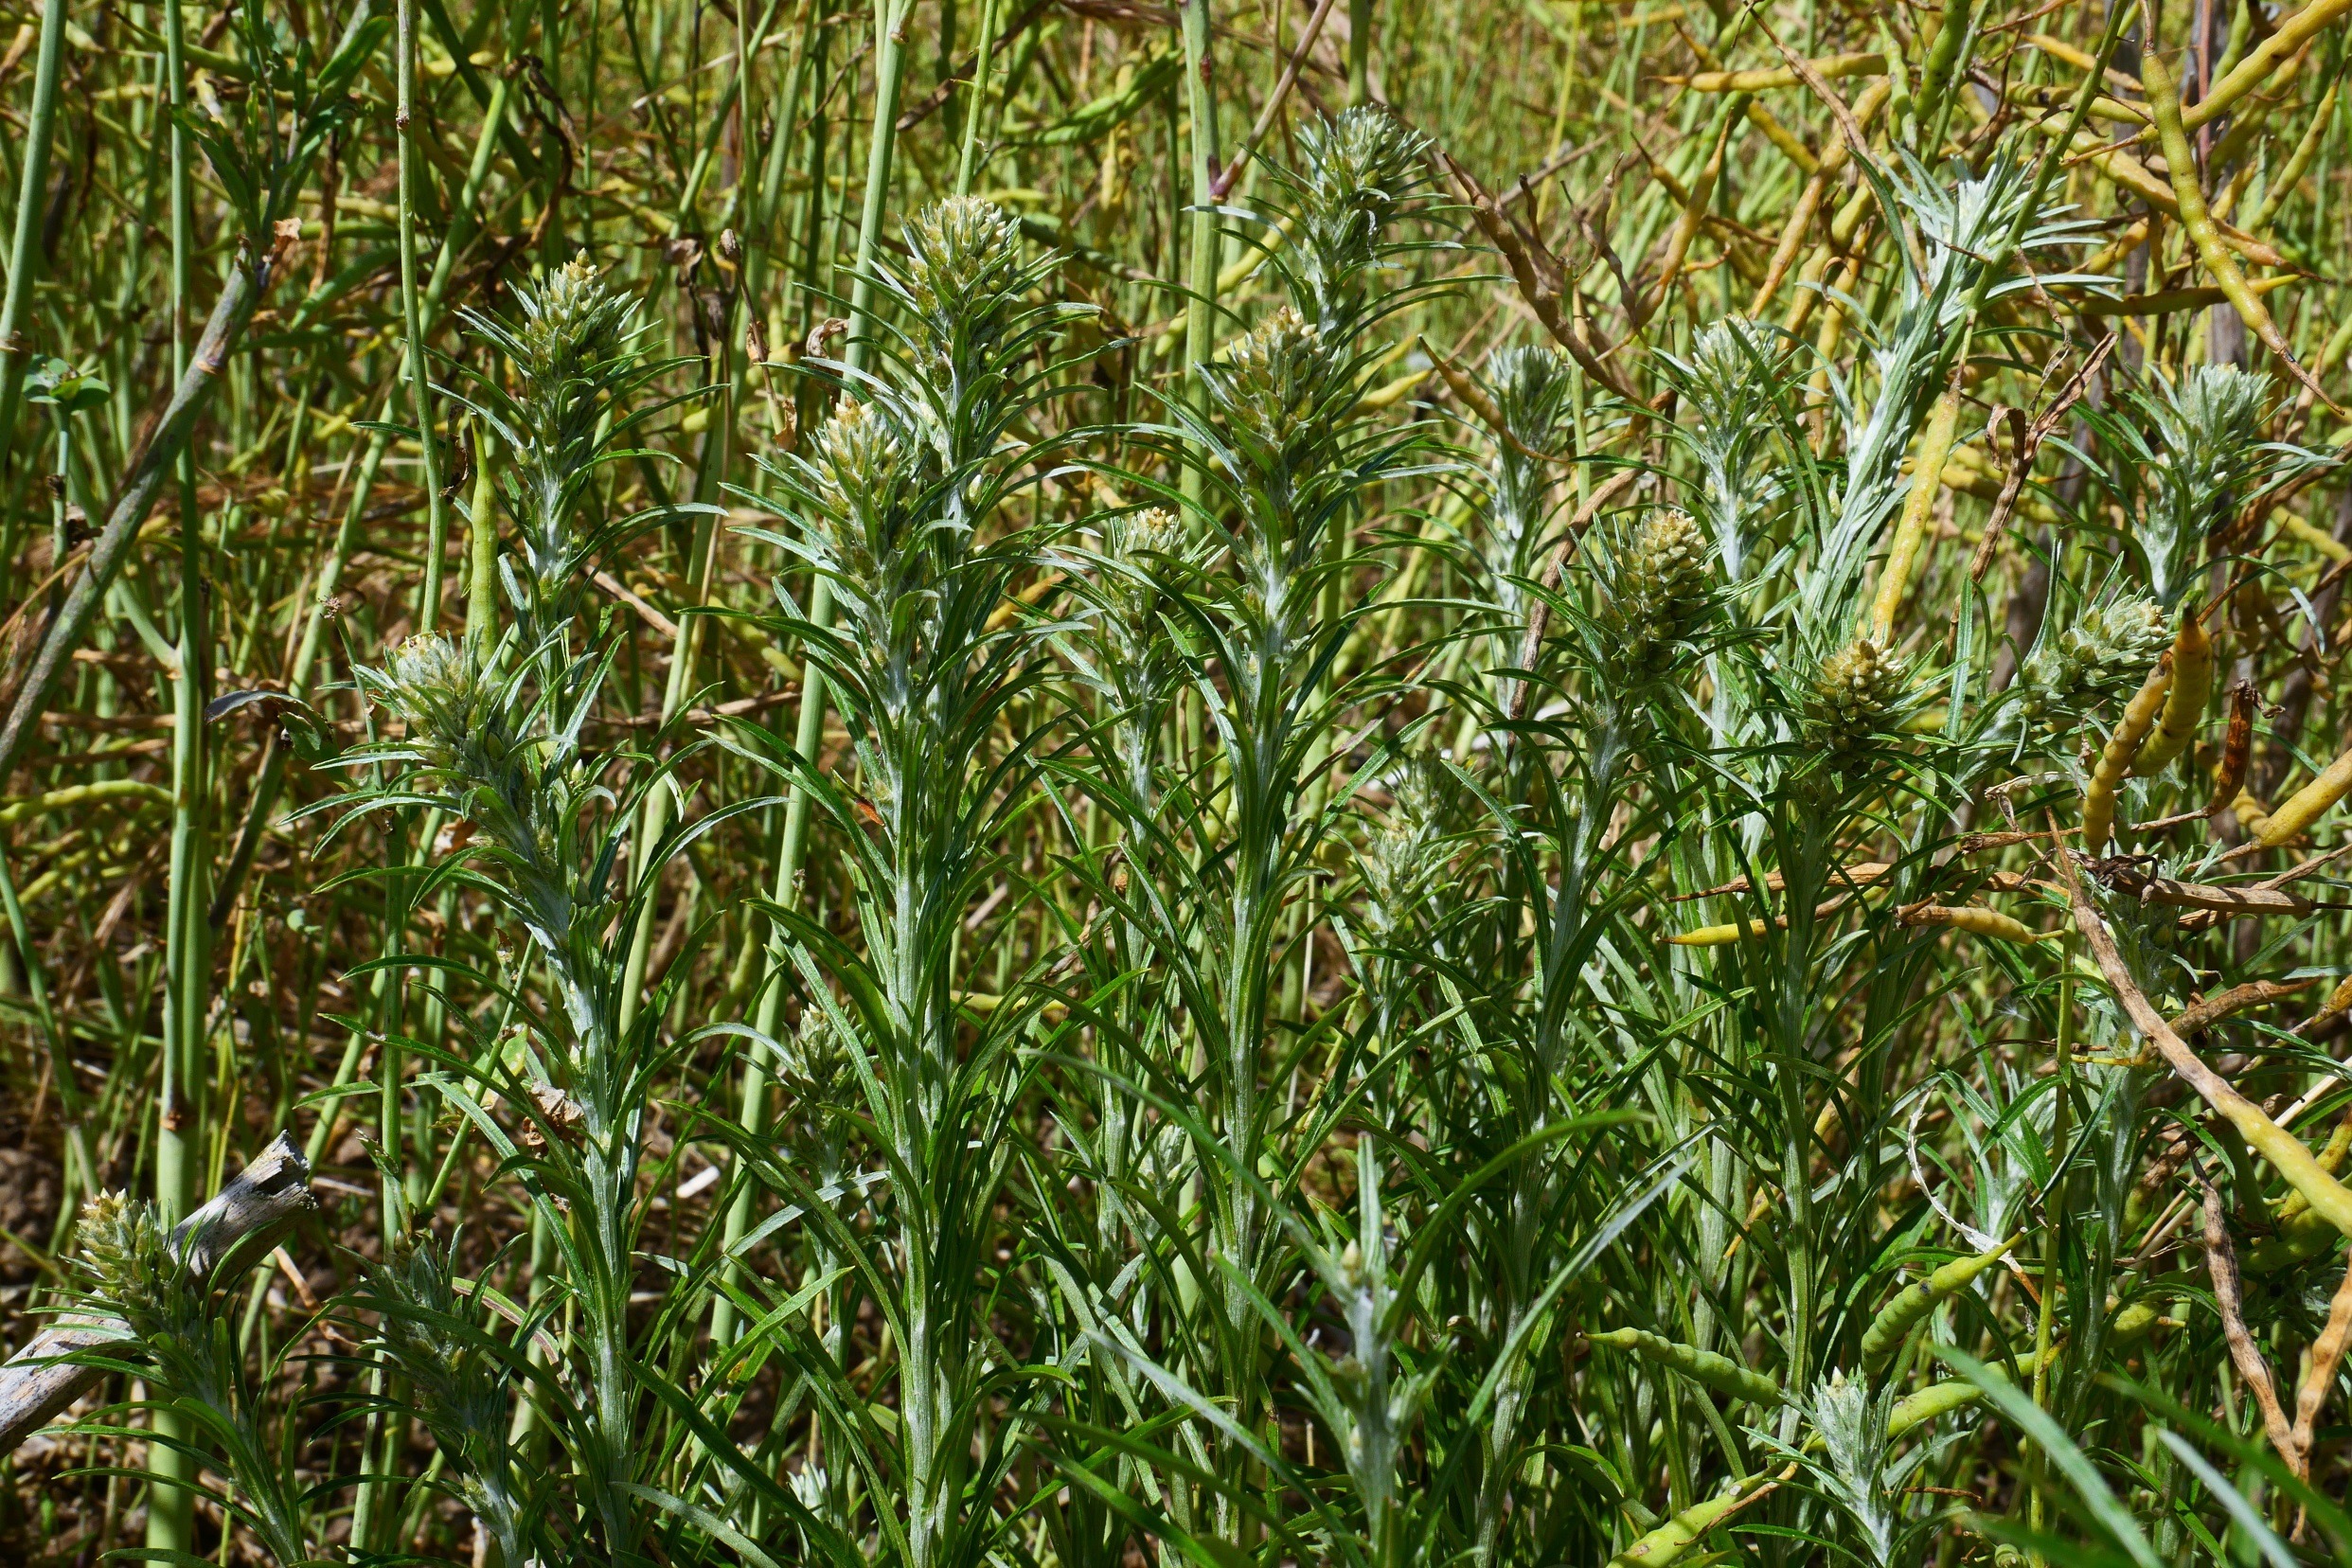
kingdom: Plantae
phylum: Tracheophyta
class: Magnoliopsida
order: Asterales
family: Asteraceae
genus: Omalotheca
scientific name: Omalotheca sylvatica
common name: Rank evighedsblomst
